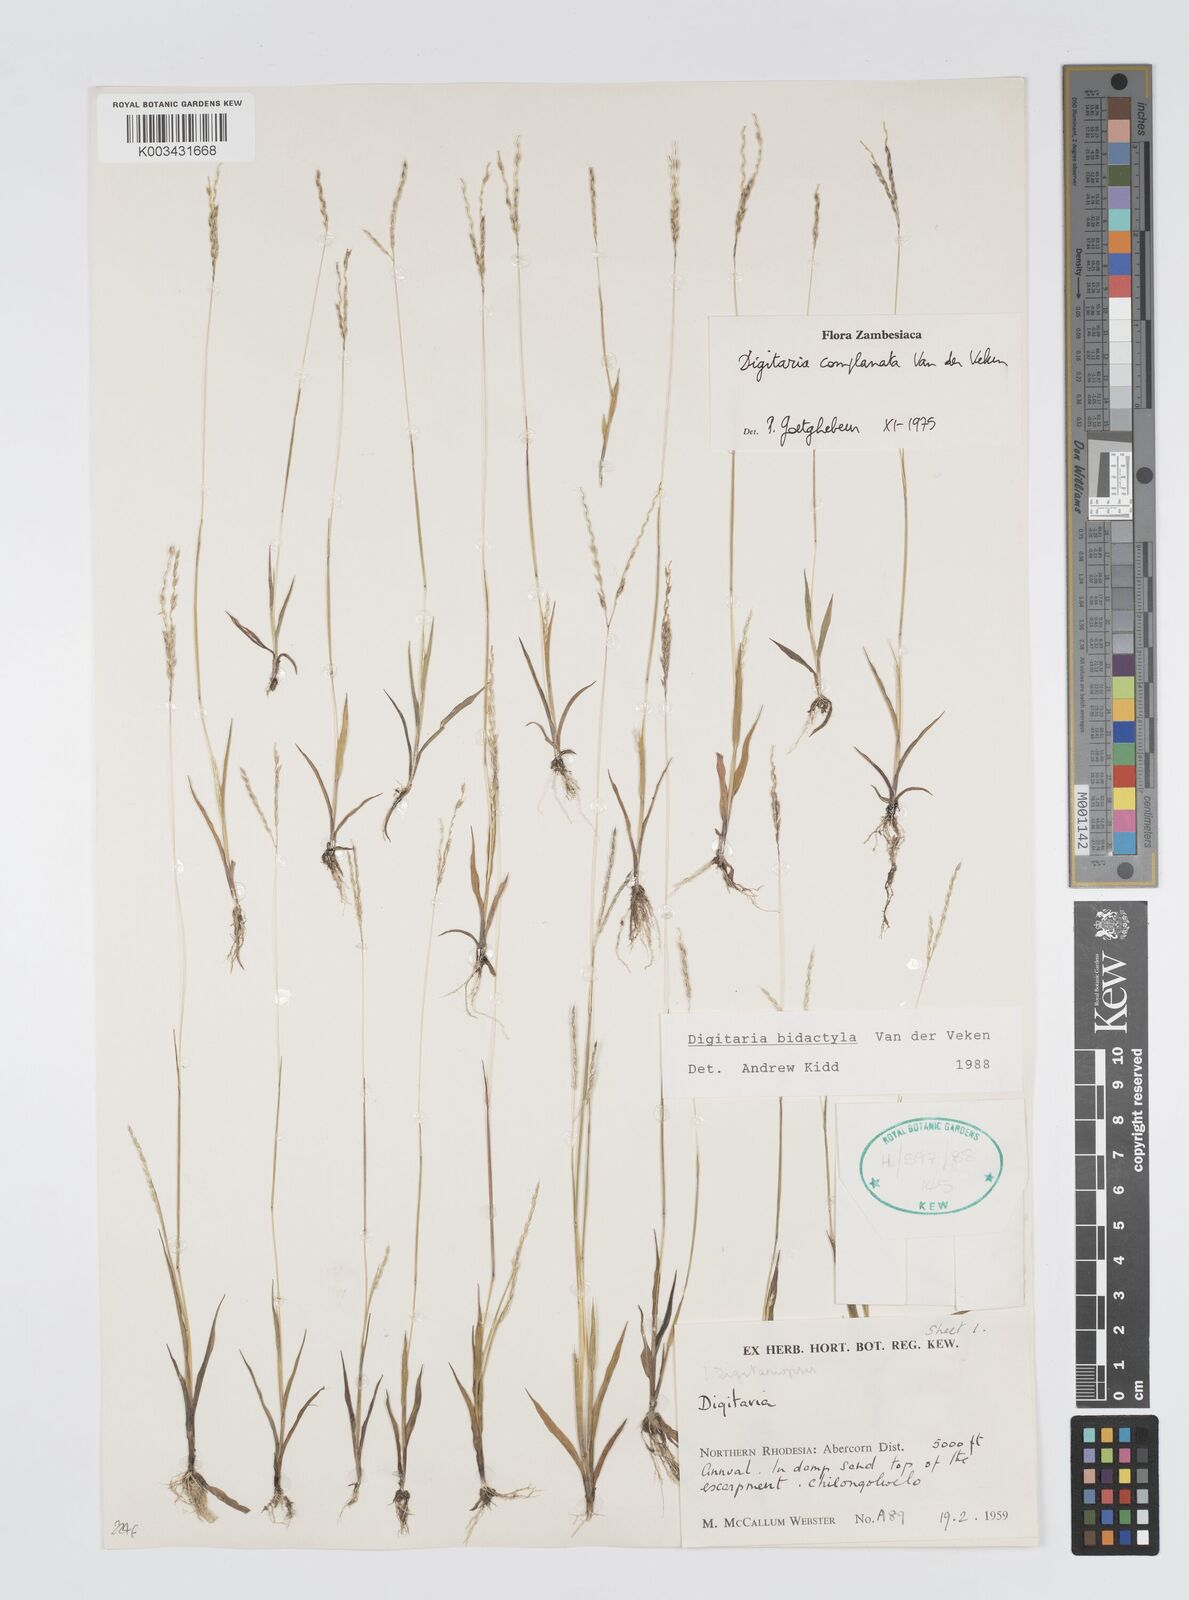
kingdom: Plantae
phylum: Tracheophyta
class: Liliopsida
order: Poales
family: Poaceae
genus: Digitaria
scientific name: Digitaria bidactyla
